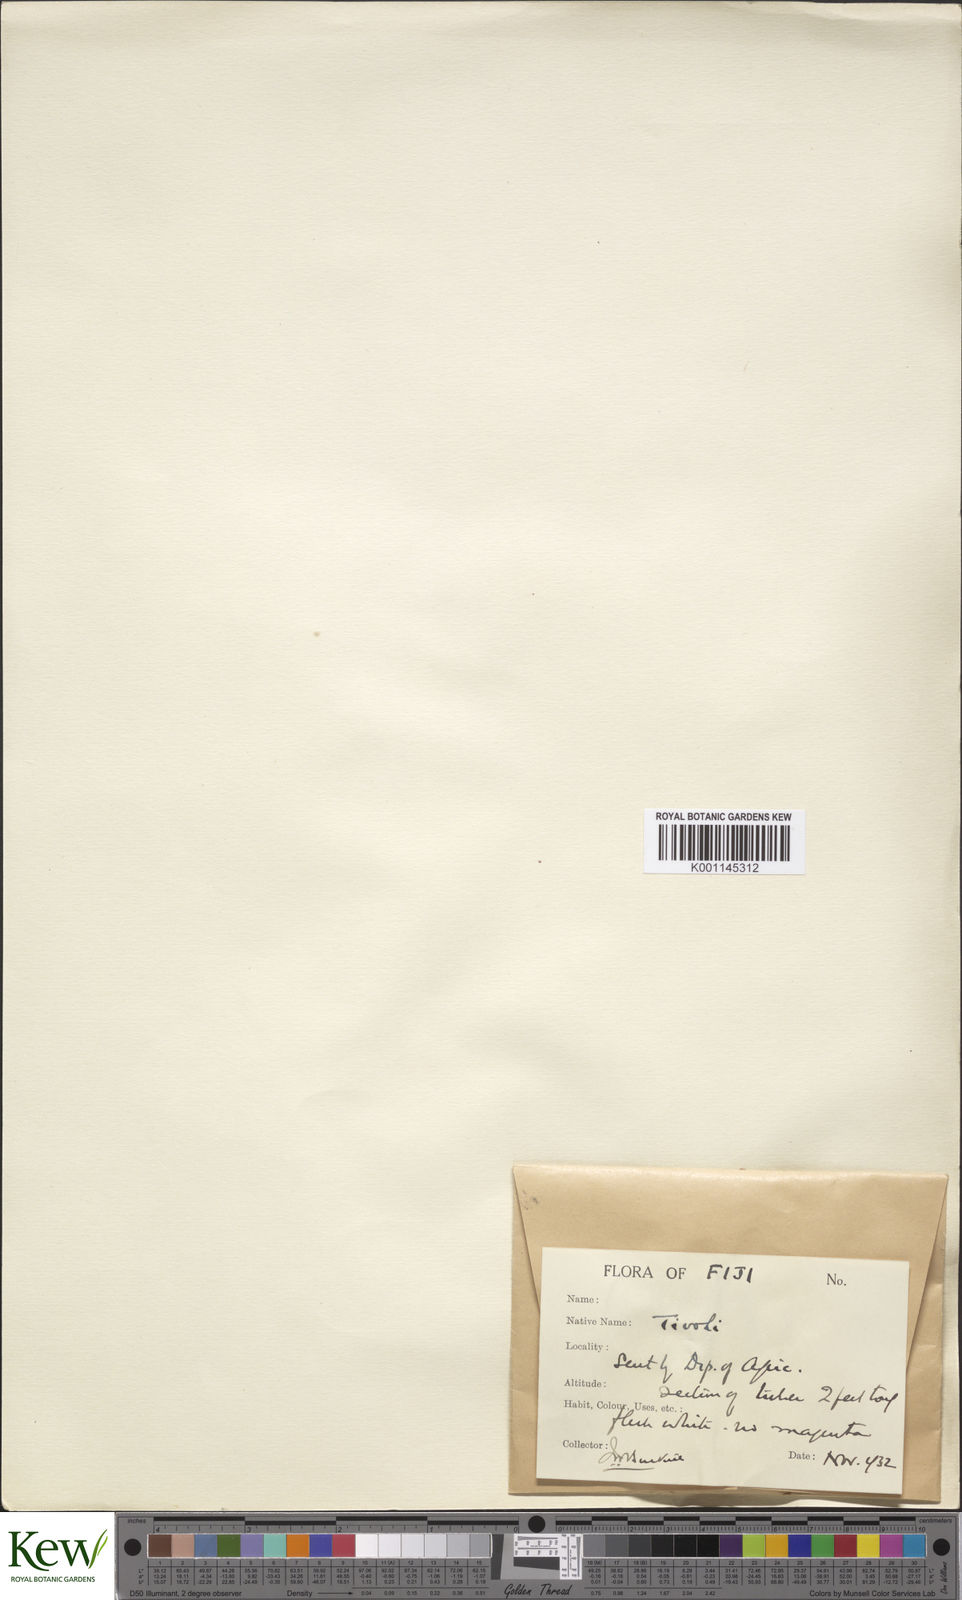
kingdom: Plantae
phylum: Tracheophyta
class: Liliopsida
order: Dioscoreales
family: Dioscoreaceae
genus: Dioscorea
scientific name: Dioscorea nummularia
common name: Pacific yam
